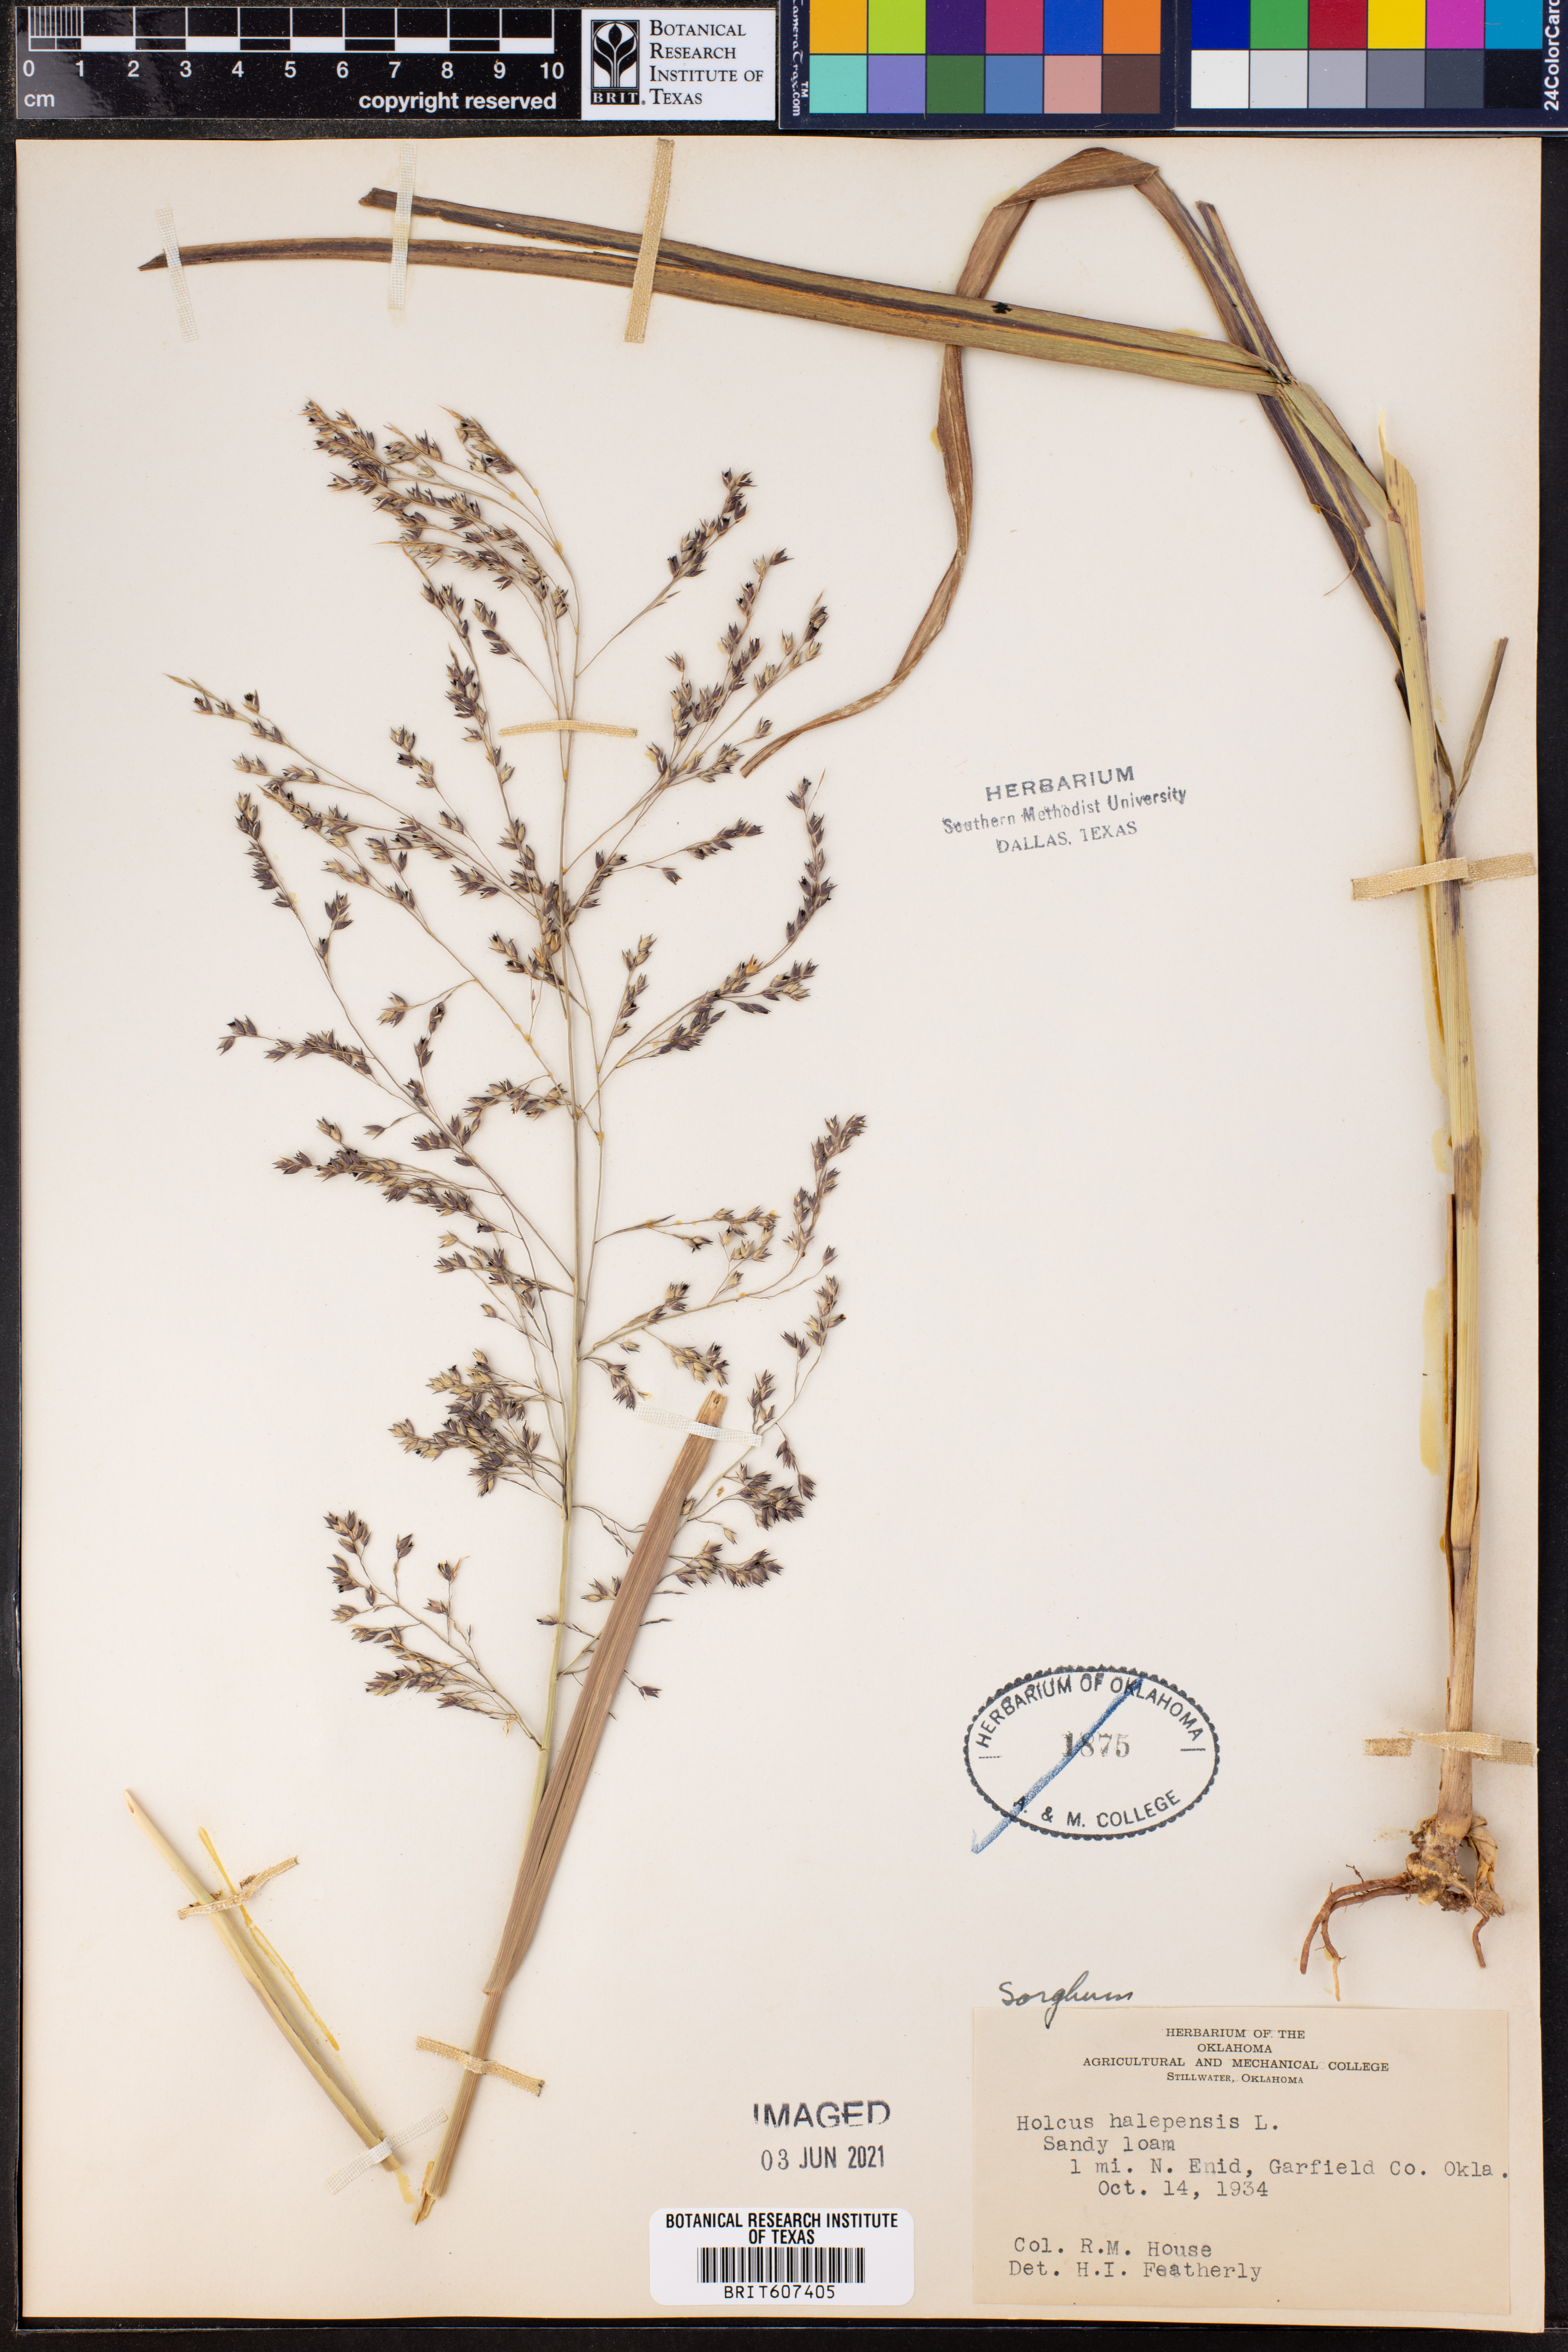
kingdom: Plantae
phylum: Tracheophyta
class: Liliopsida
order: Poales
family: Poaceae
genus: Sorghum
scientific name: Sorghum halepense
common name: Johnson-grass
